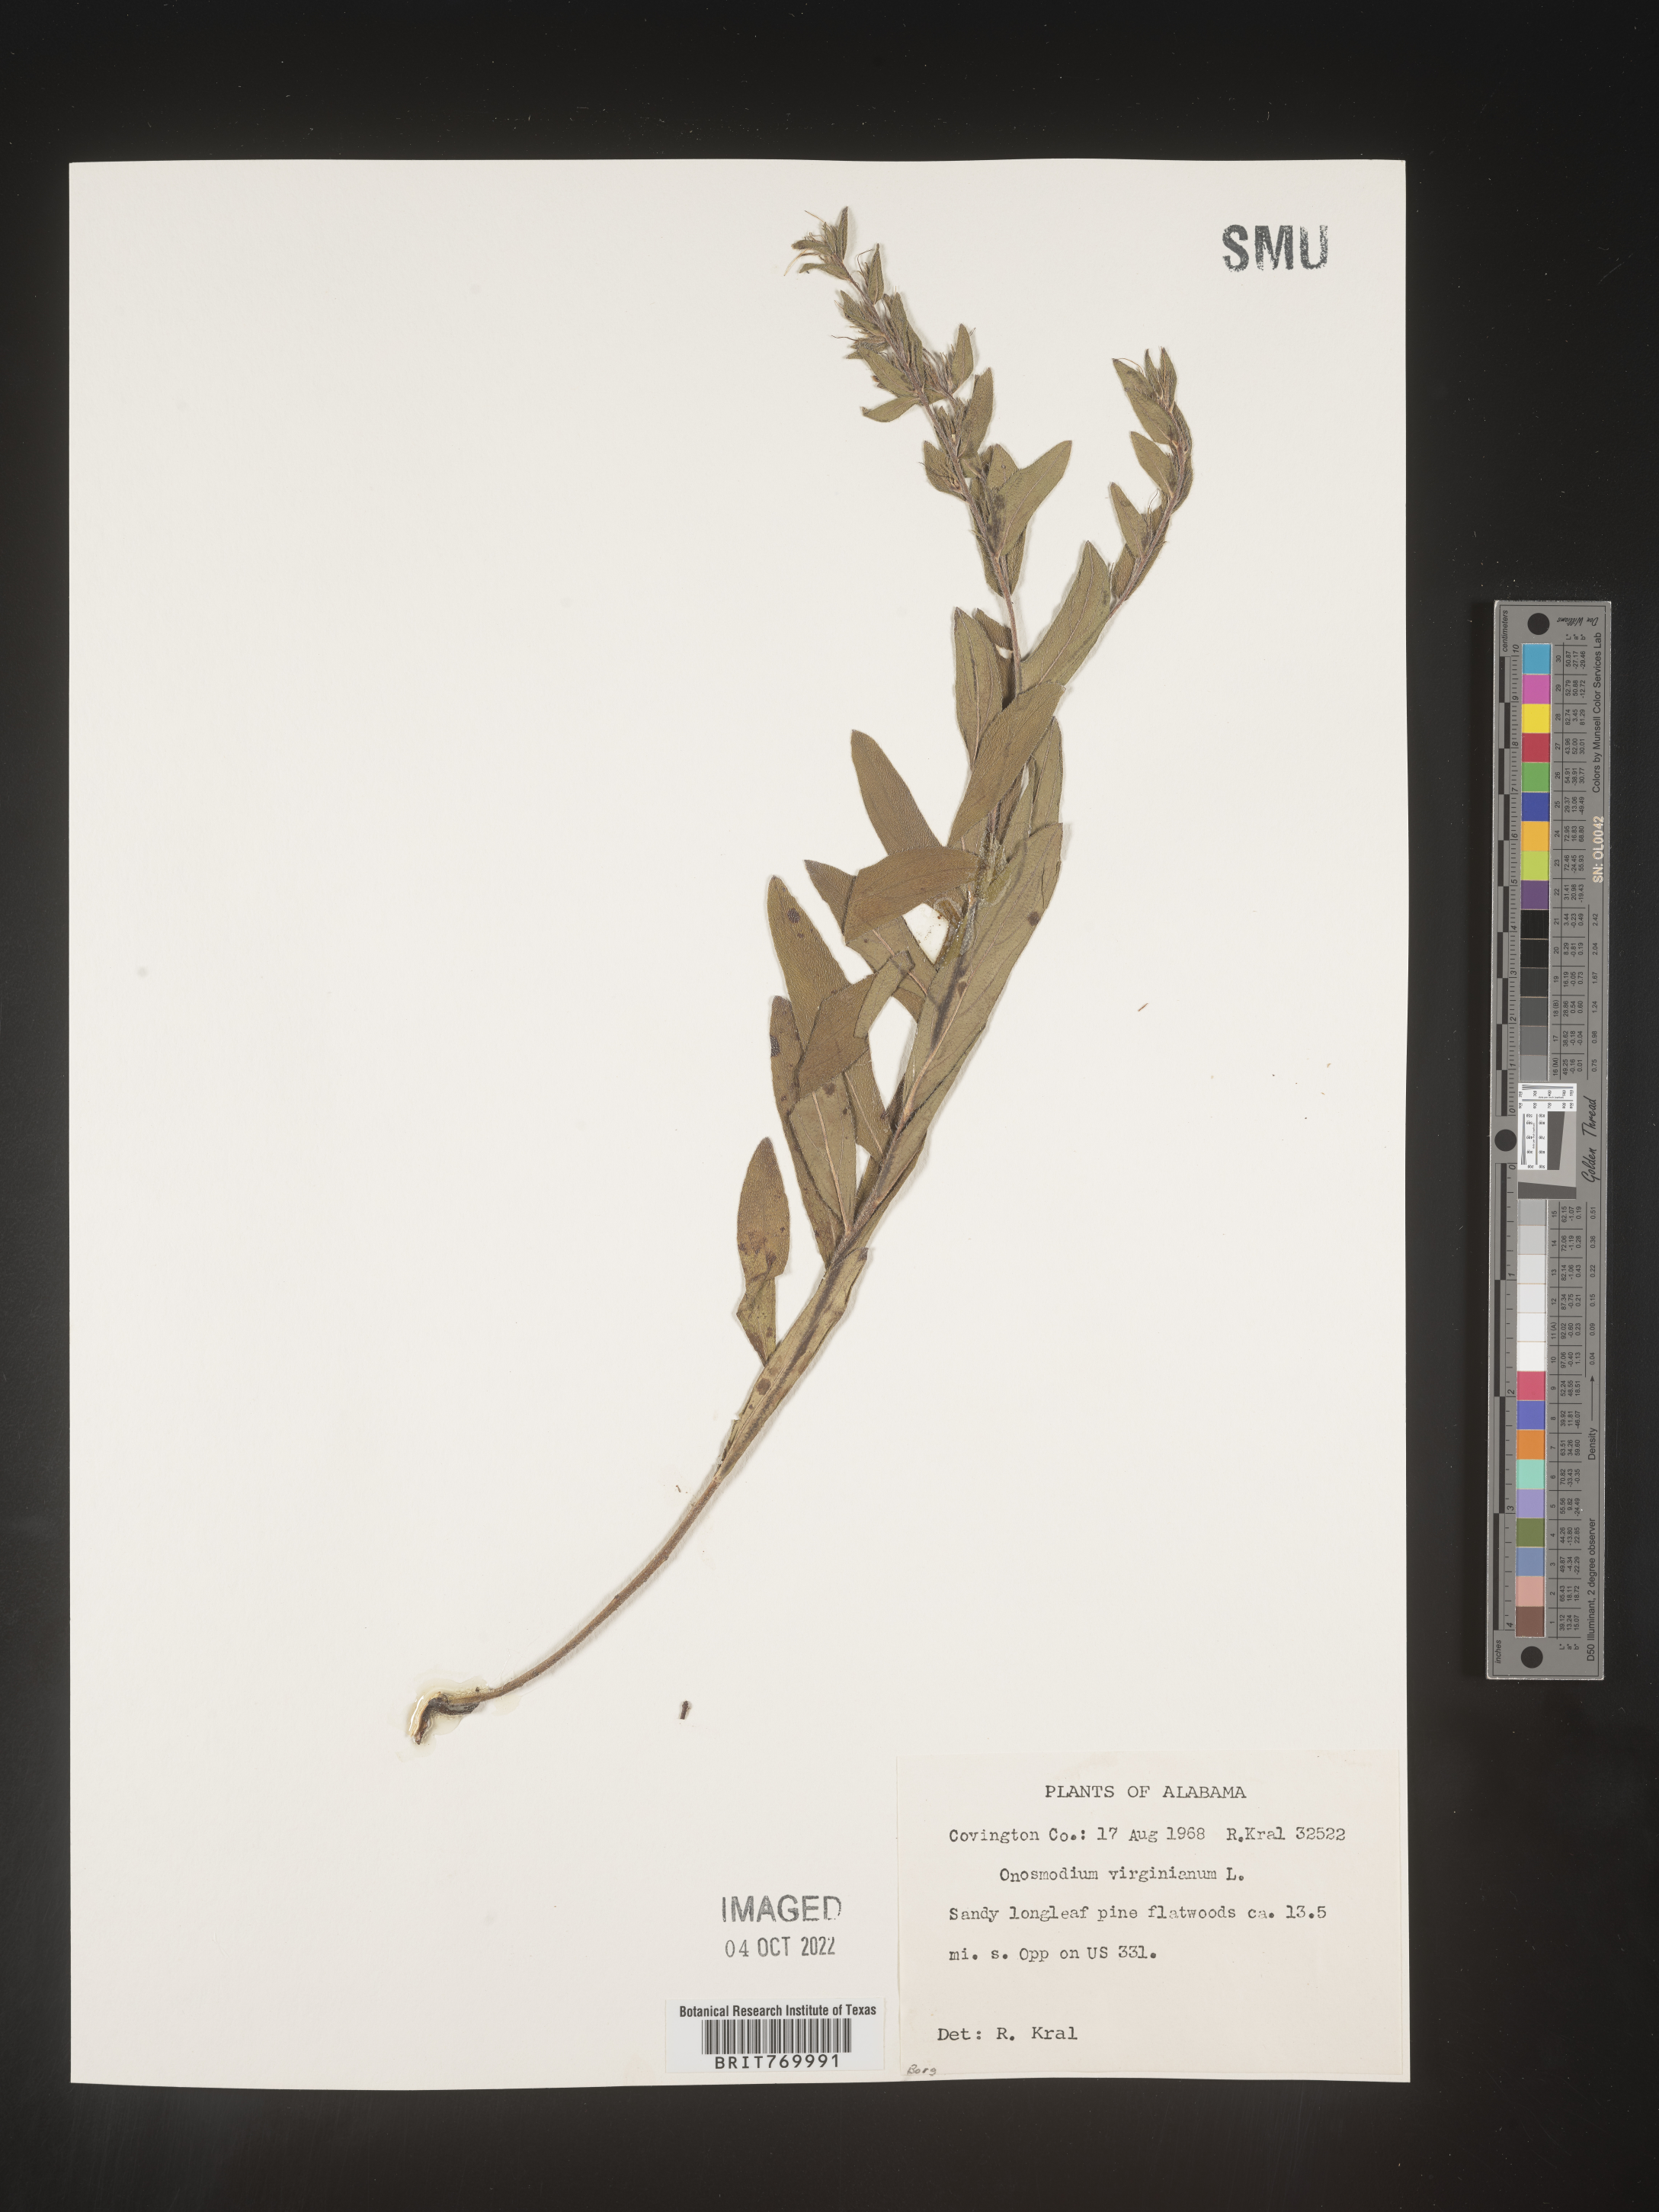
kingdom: Plantae
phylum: Tracheophyta
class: Magnoliopsida
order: Boraginales
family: Boraginaceae
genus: Lithospermum
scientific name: Lithospermum virginianum
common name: Eastern false gromwell
